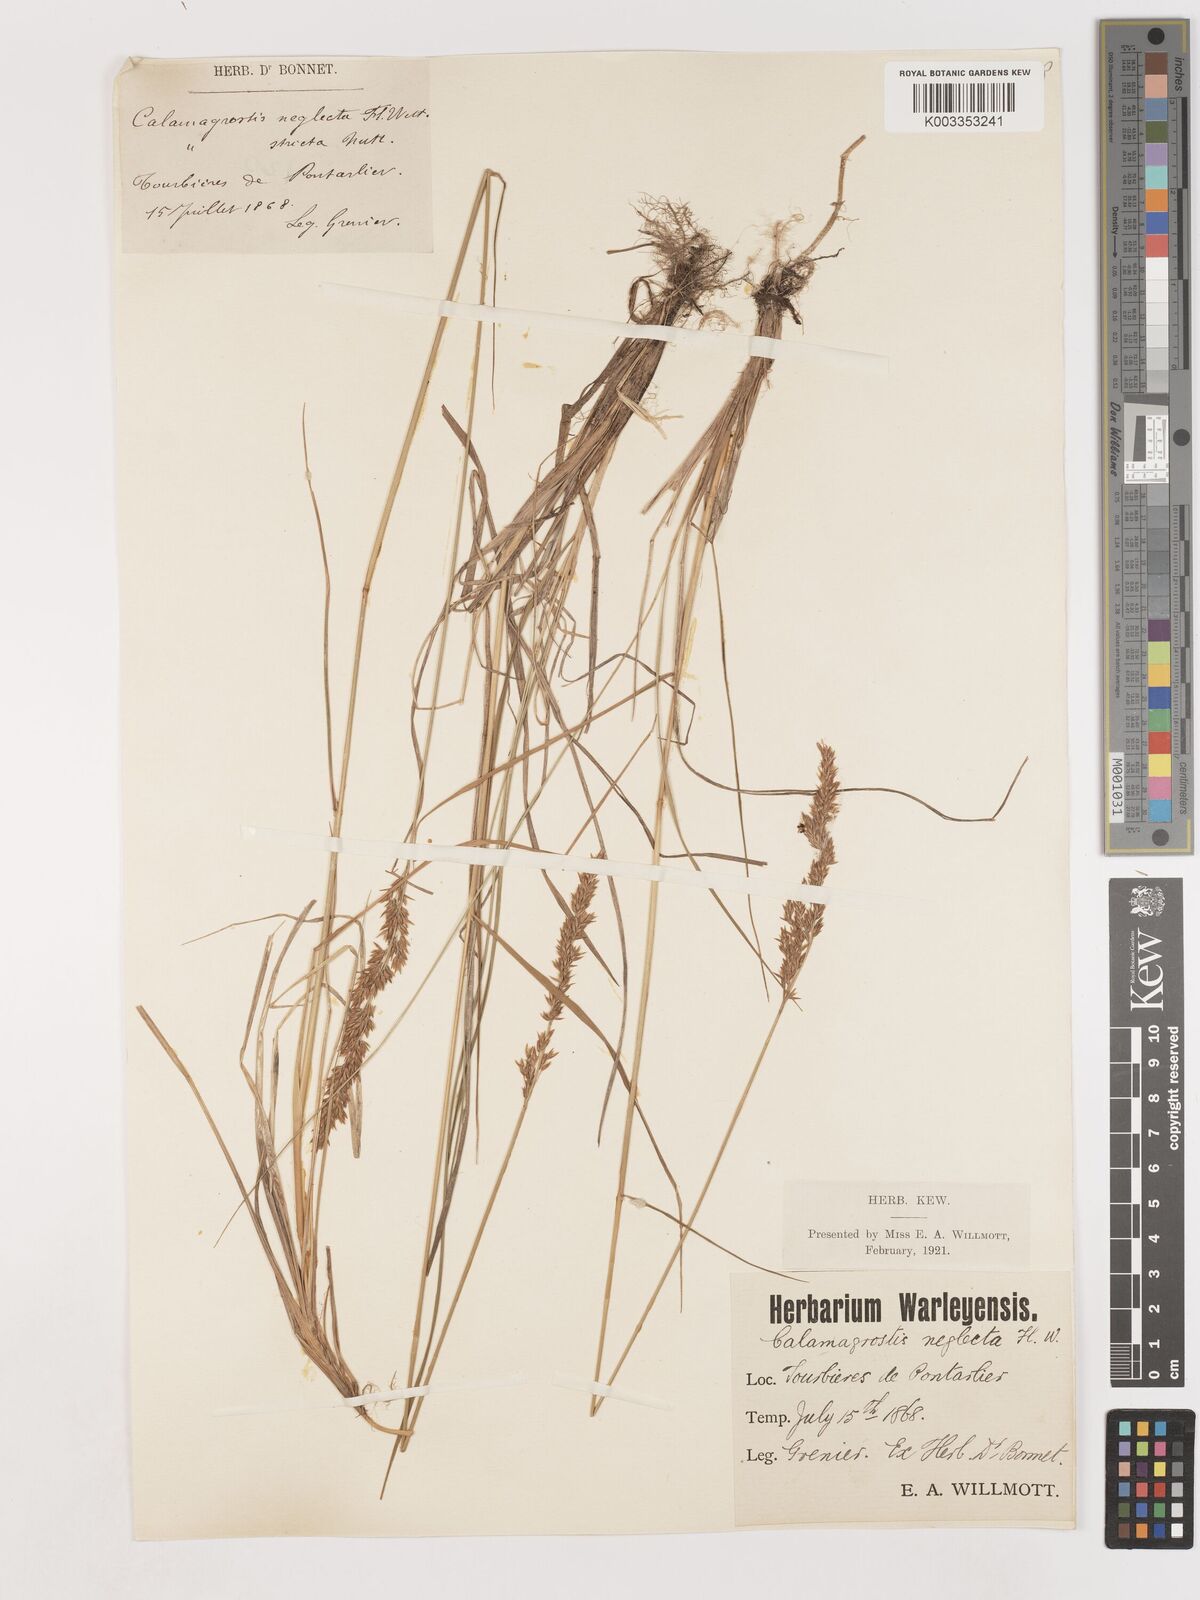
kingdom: Plantae
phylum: Tracheophyta
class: Liliopsida
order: Poales
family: Poaceae
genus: Cinnagrostis
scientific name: Cinnagrostis recta
